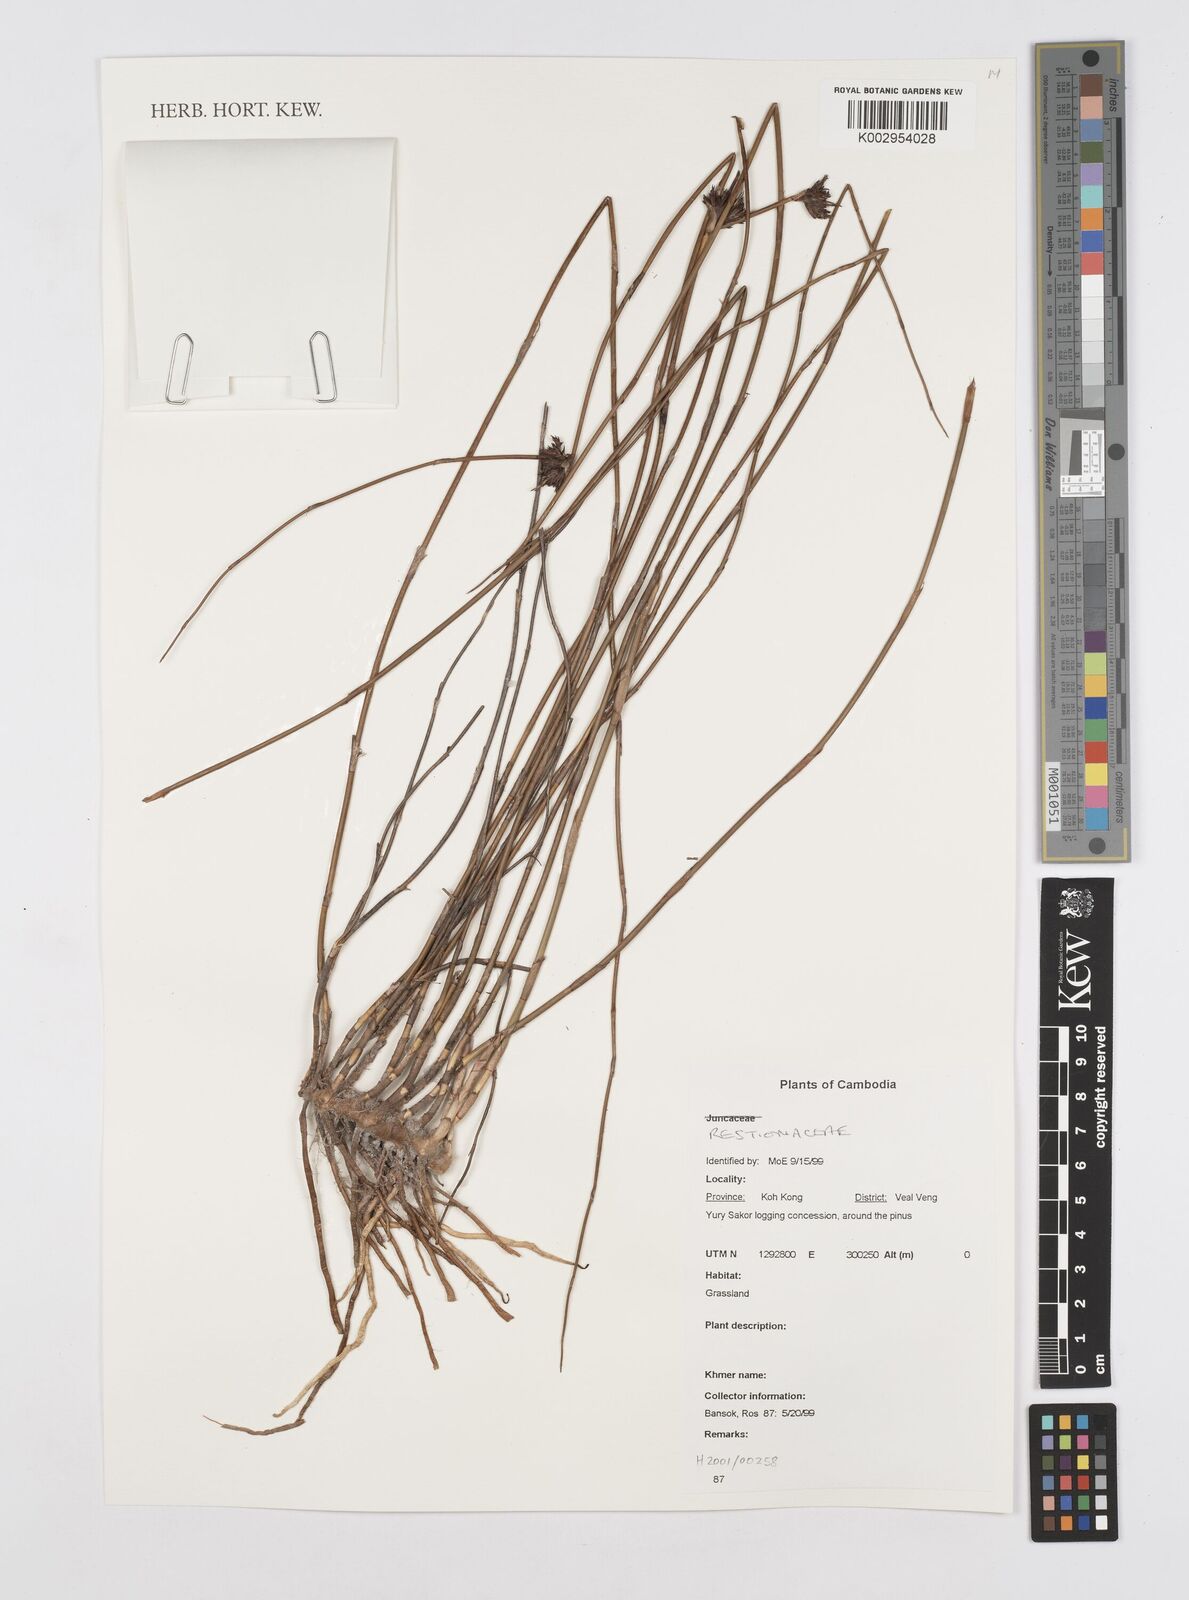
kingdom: Plantae
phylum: Tracheophyta
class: Liliopsida
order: Poales
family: Restionaceae
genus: Dapsilanthus
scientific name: Dapsilanthus disjunctus
